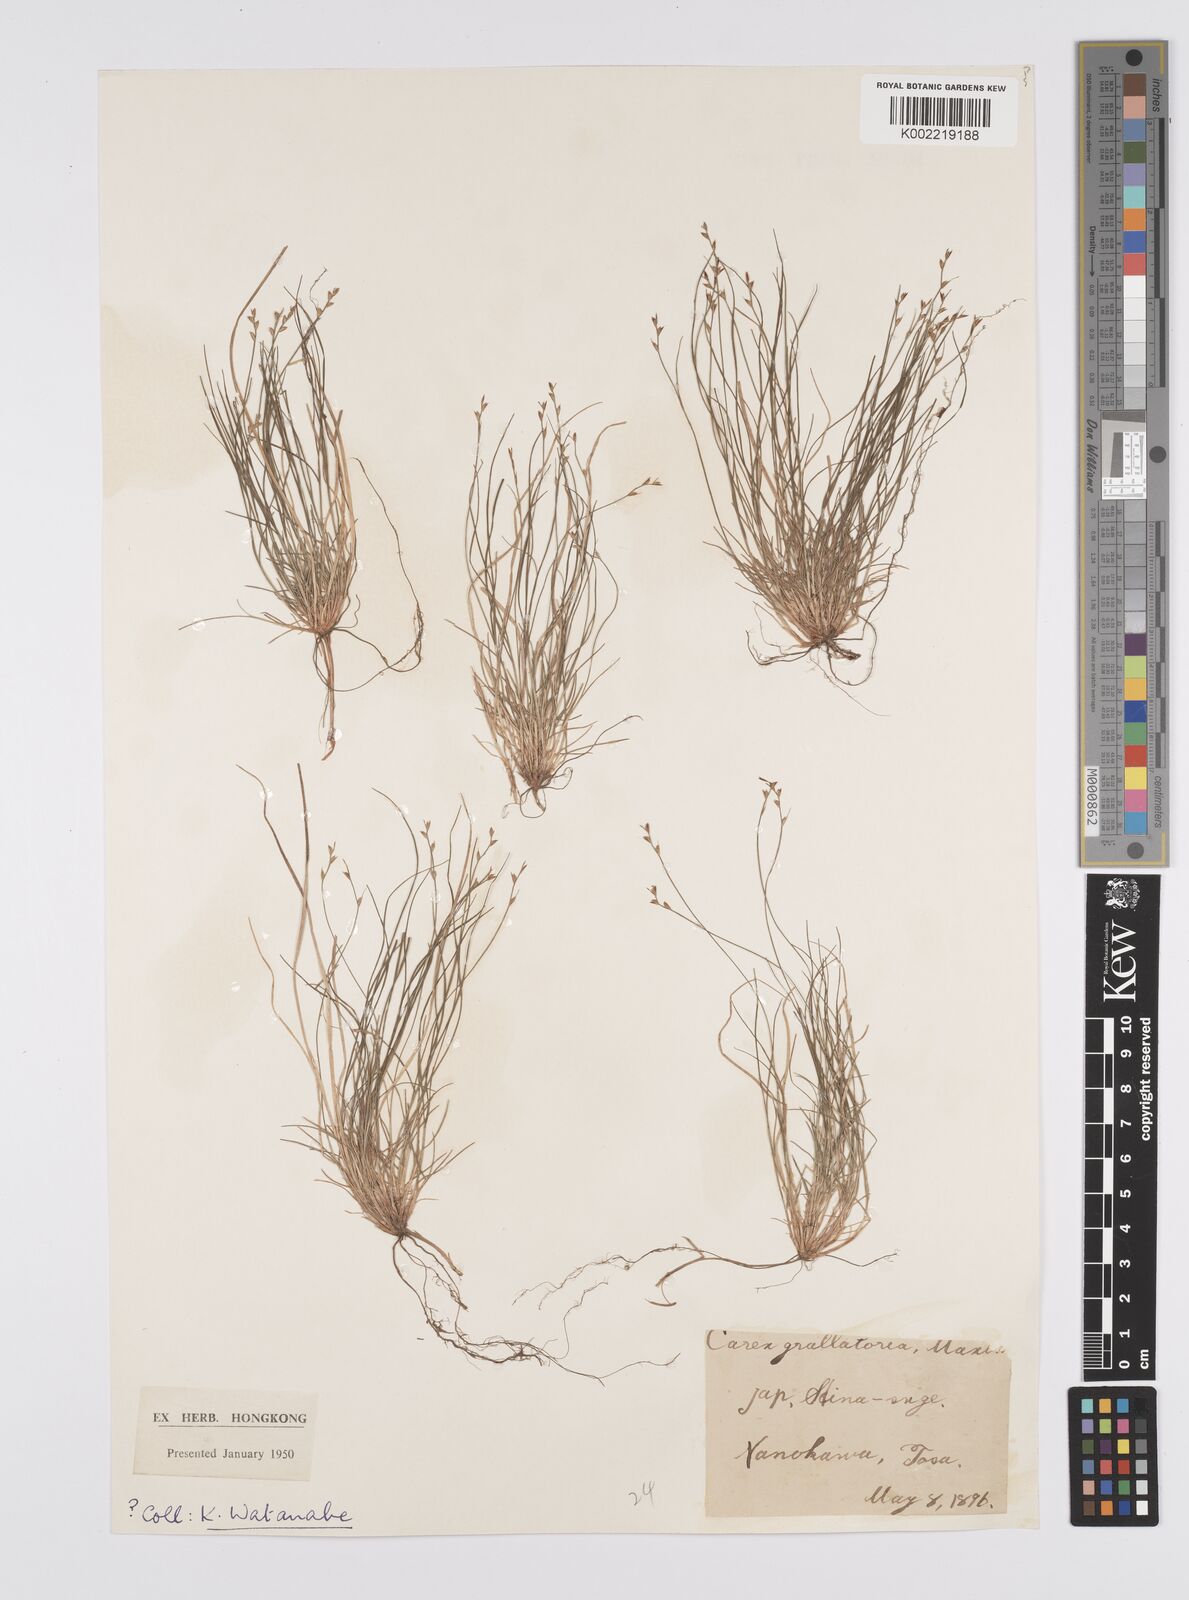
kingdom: Plantae
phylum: Tracheophyta
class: Liliopsida
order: Poales
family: Cyperaceae
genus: Carex
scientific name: Carex grallatoria
